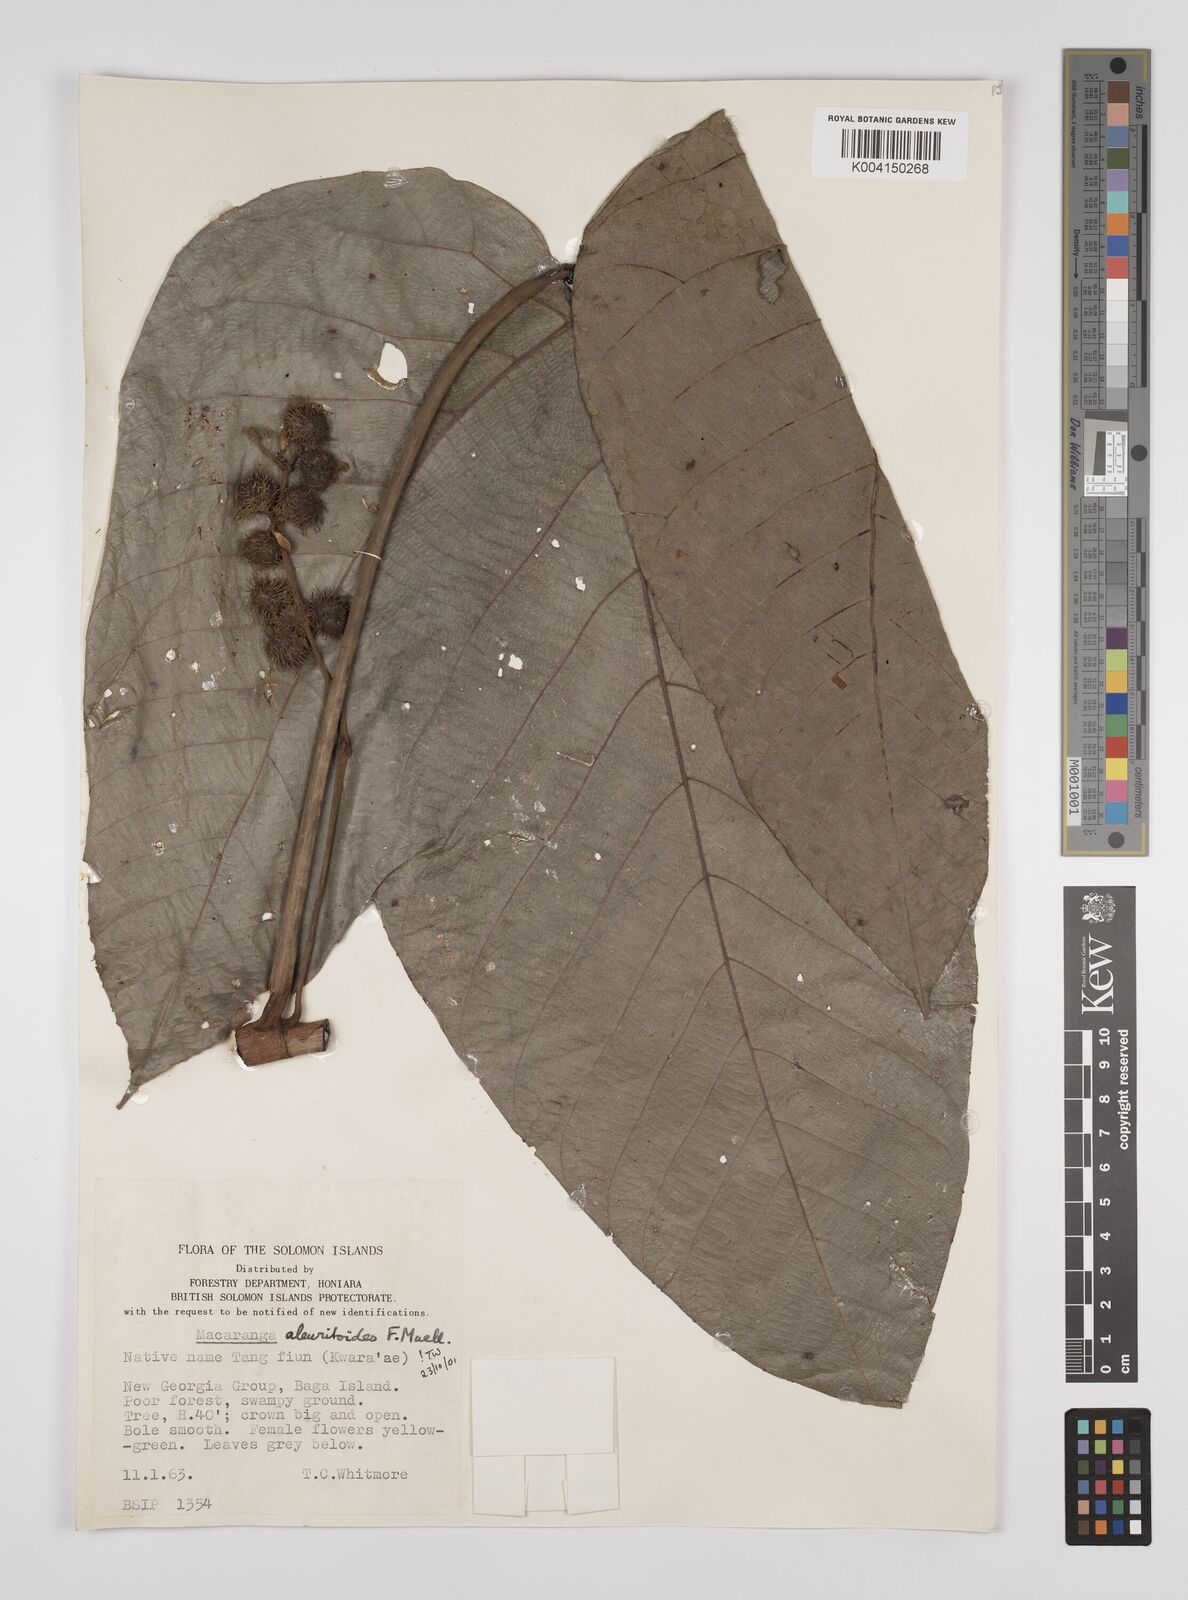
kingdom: Plantae
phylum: Tracheophyta
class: Magnoliopsida
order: Malpighiales
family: Euphorbiaceae
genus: Macaranga
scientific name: Macaranga aleuritoides
